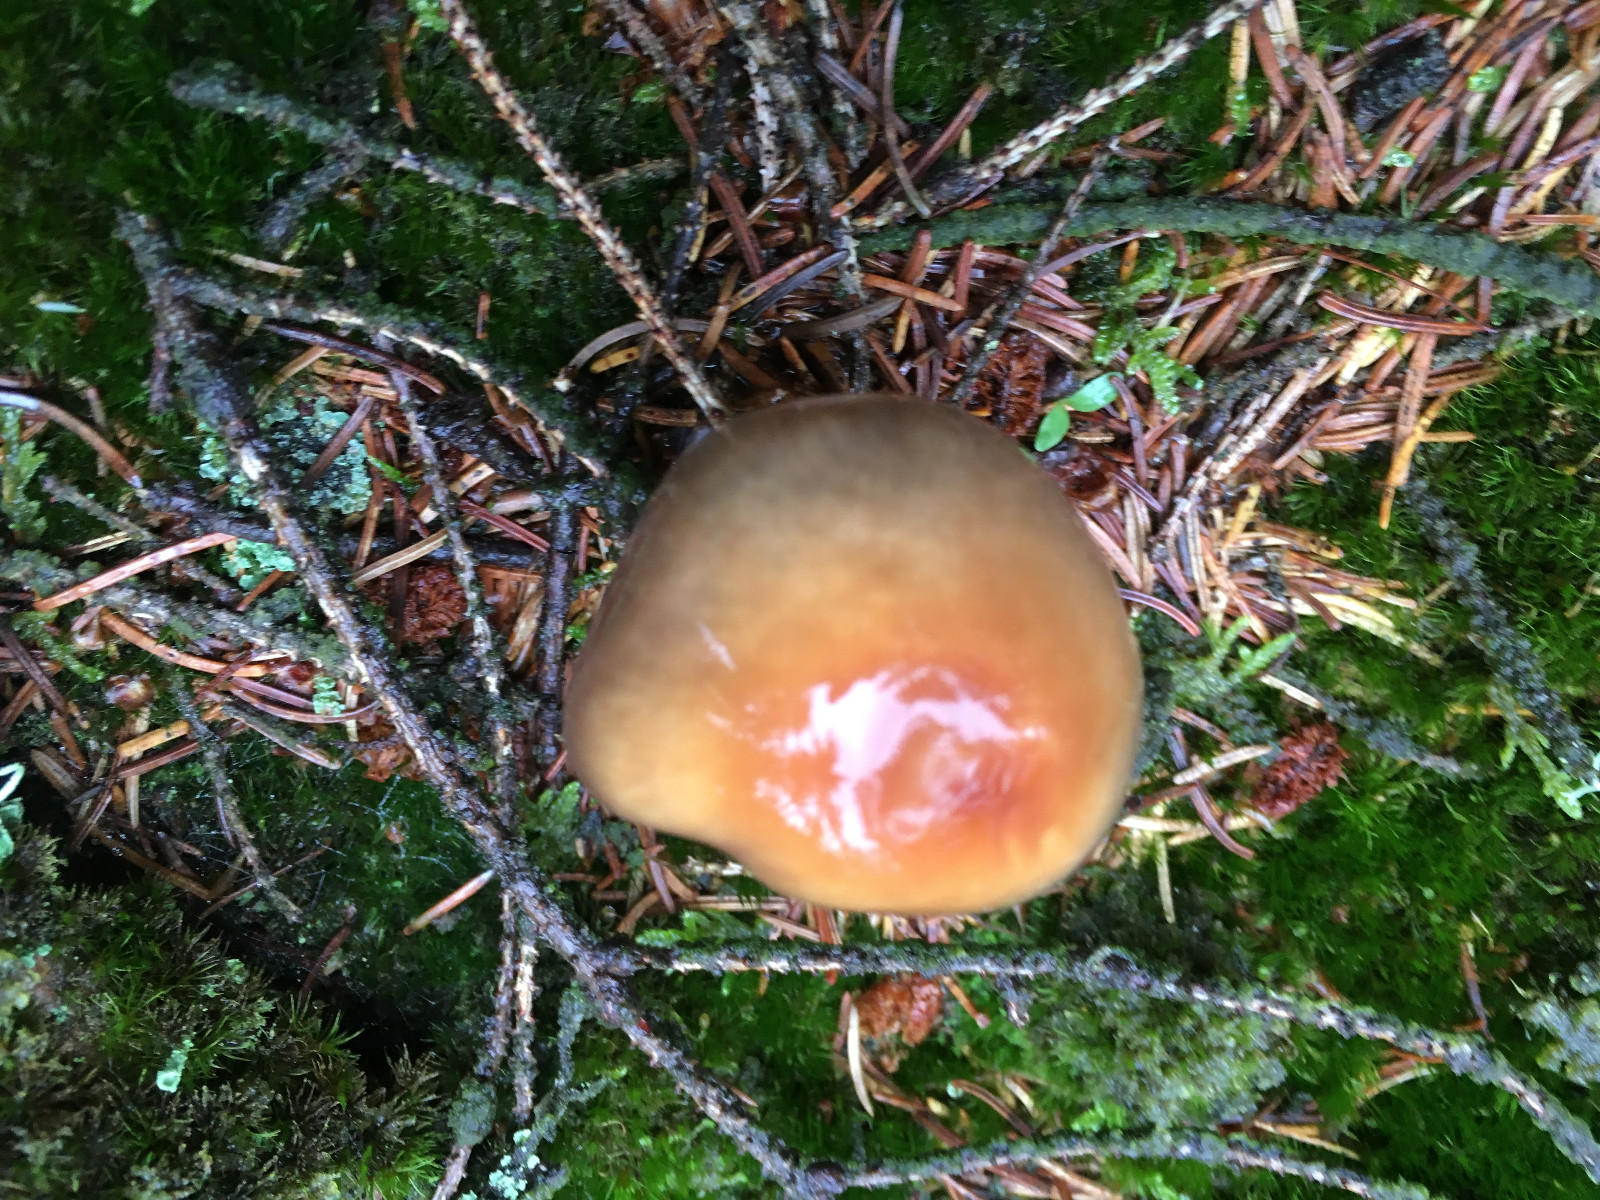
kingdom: Fungi
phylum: Basidiomycota
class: Agaricomycetes
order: Agaricales
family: Cortinariaceae
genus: Cortinarius
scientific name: Cortinarius stillatitius
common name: honningduftende slørhat
